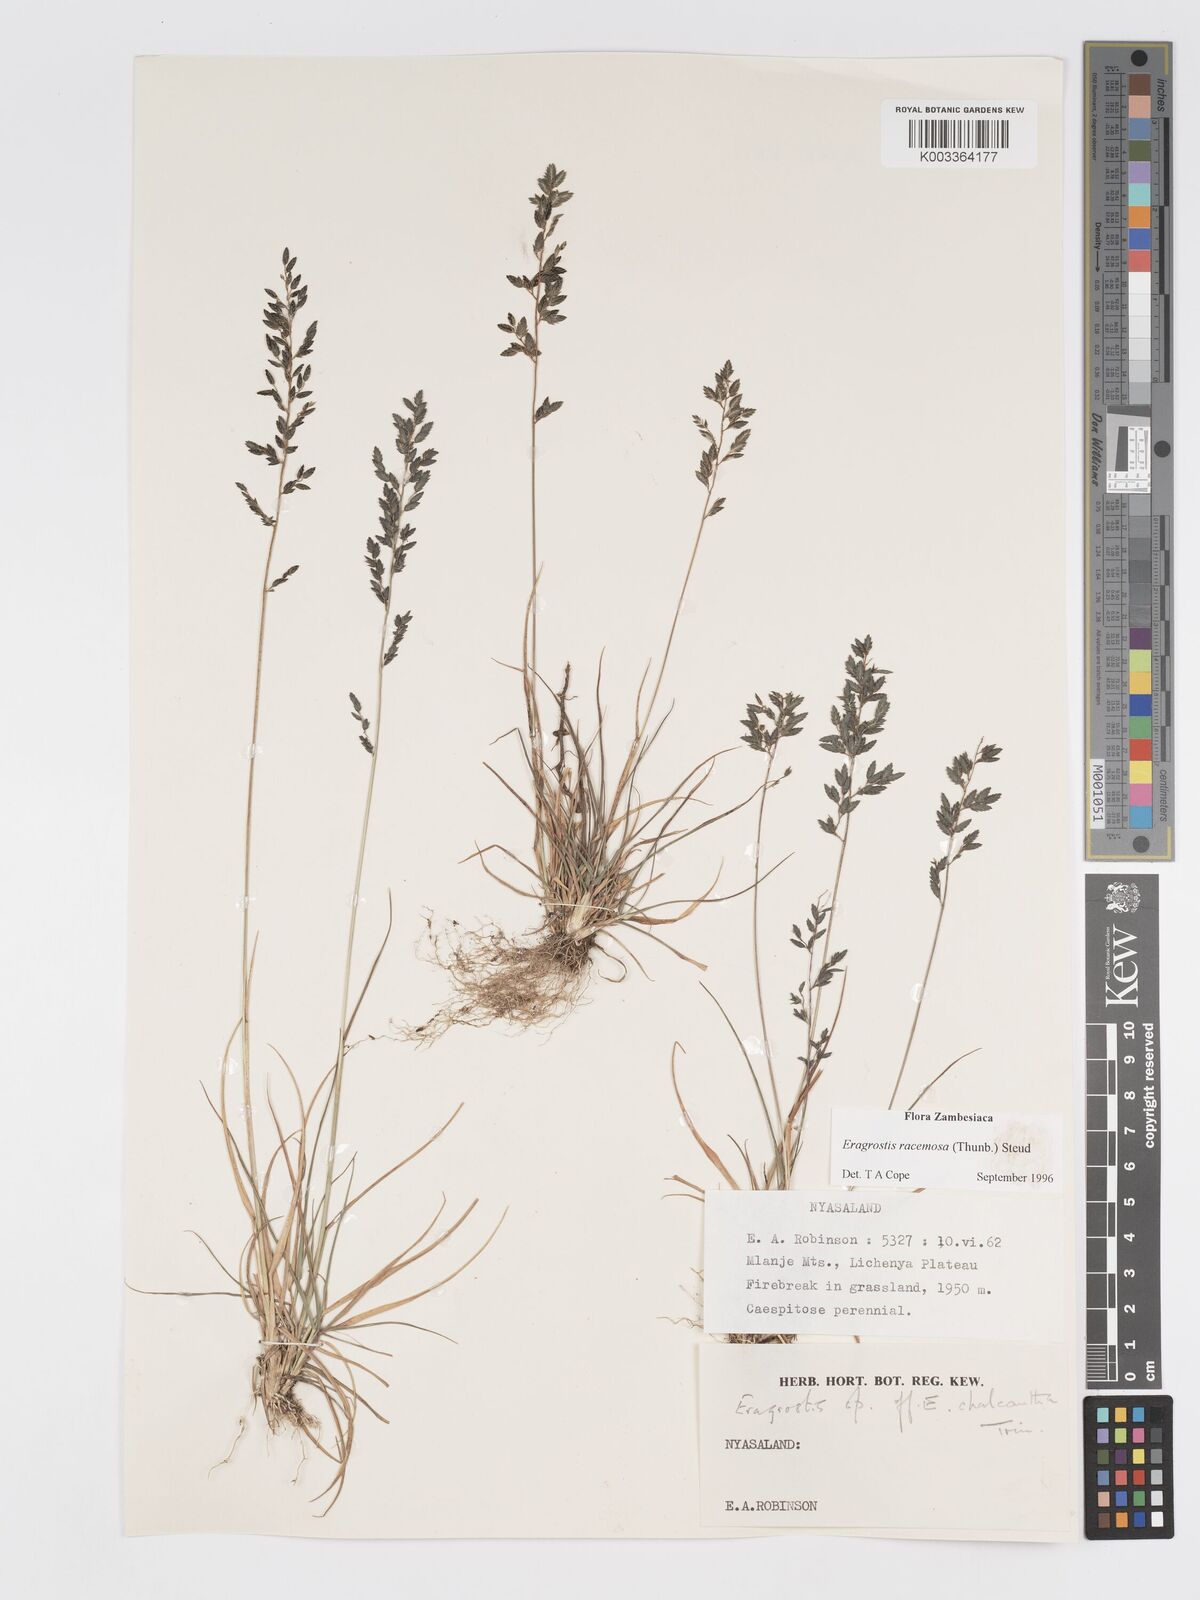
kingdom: Plantae
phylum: Tracheophyta
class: Liliopsida
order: Poales
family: Poaceae
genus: Eragrostis
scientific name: Eragrostis racemosa
